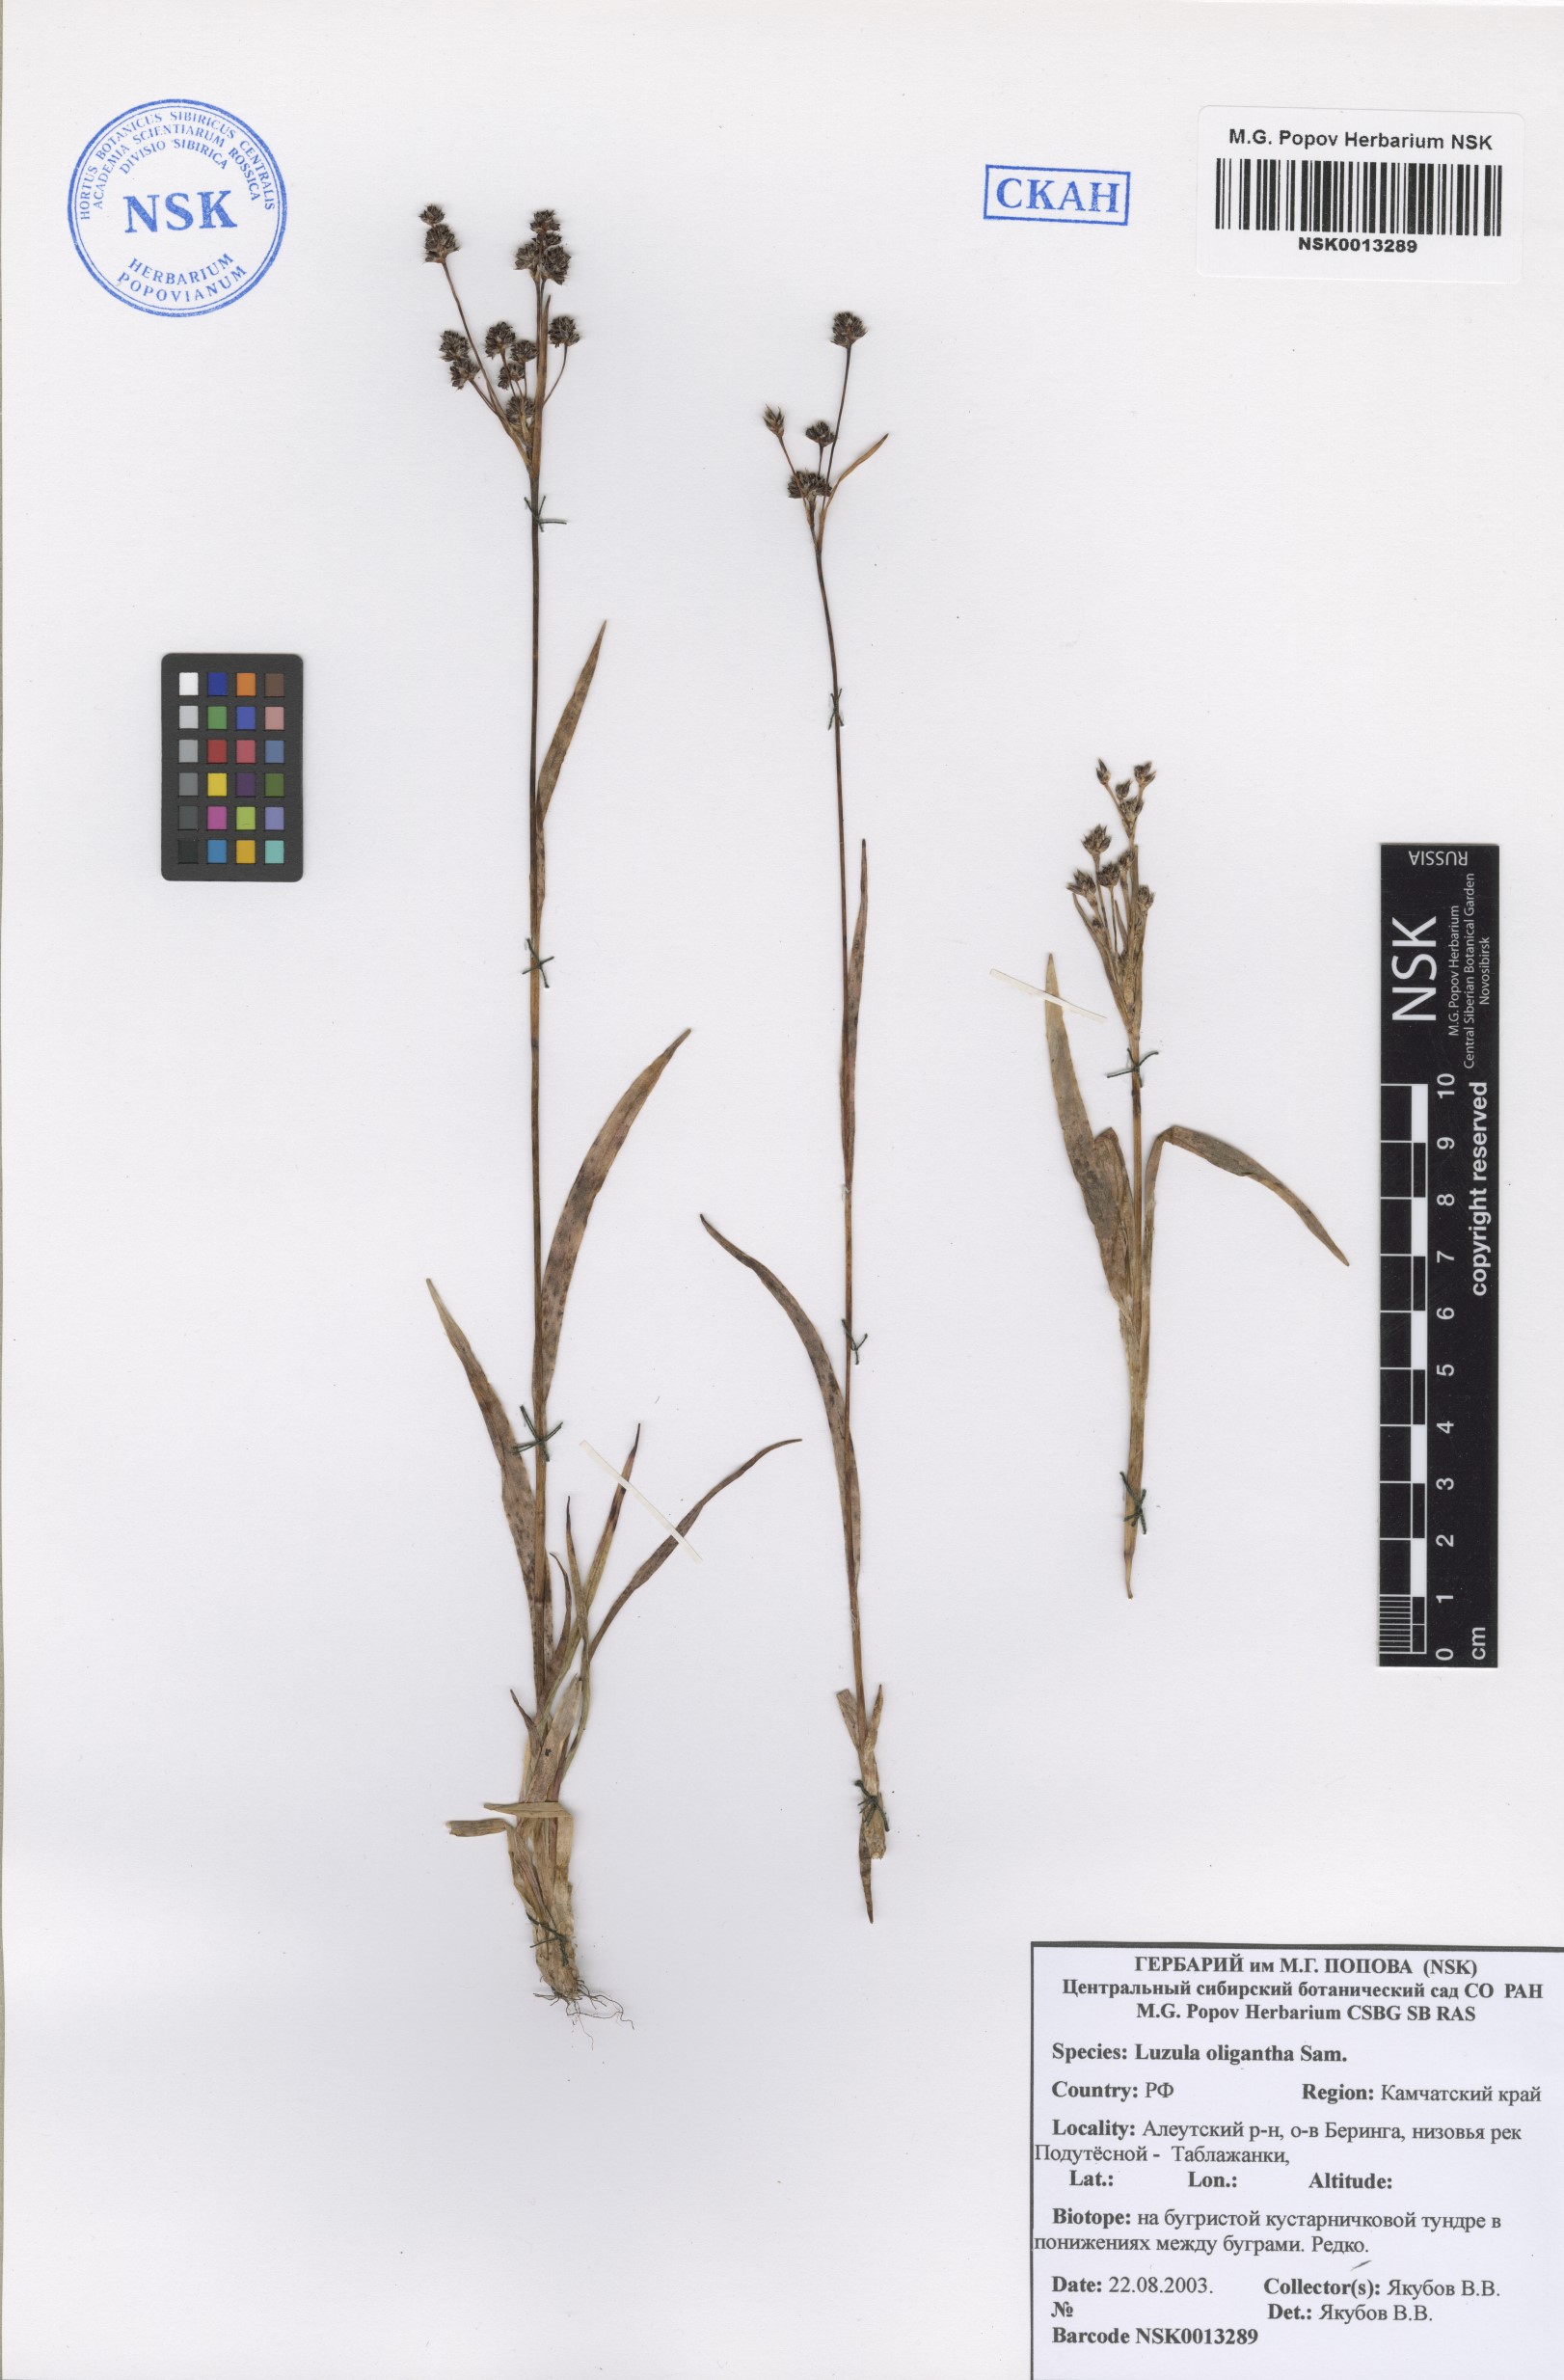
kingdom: Plantae
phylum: Tracheophyta
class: Liliopsida
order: Poales
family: Juncaceae
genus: Luzula
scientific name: Luzula oligantha
